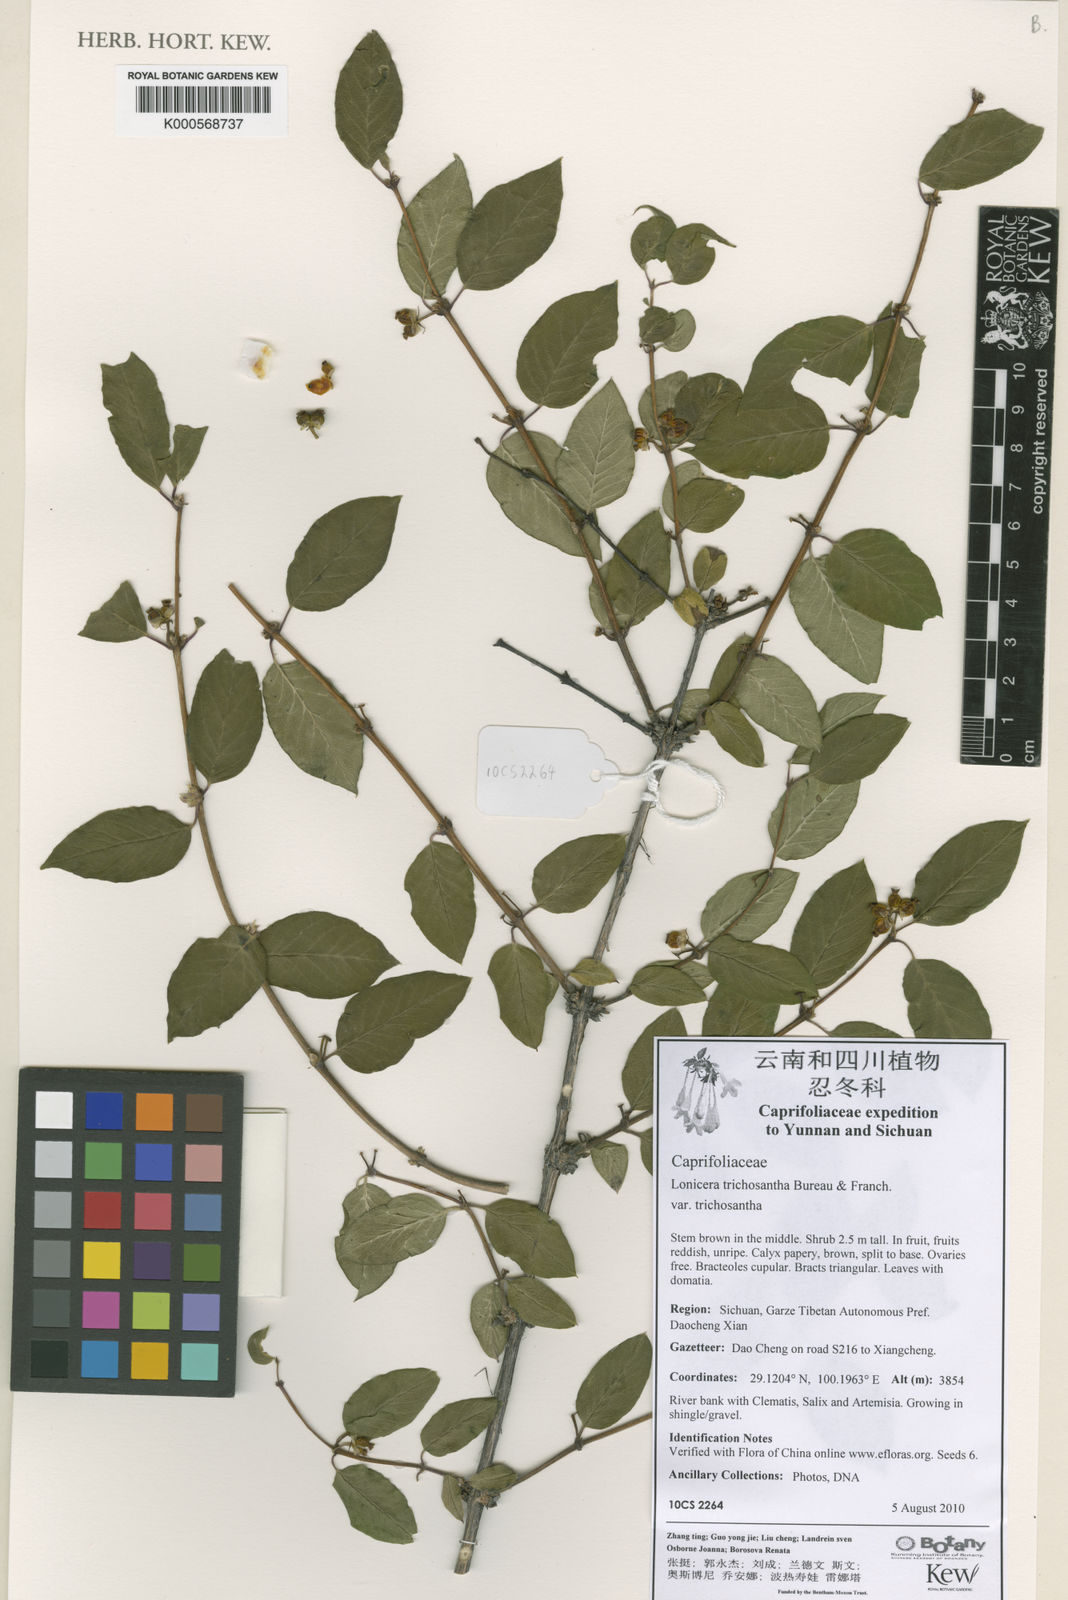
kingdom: Plantae
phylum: Tracheophyta
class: Magnoliopsida
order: Dipsacales
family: Caprifoliaceae
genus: Lonicera
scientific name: Lonicera trichosantha
